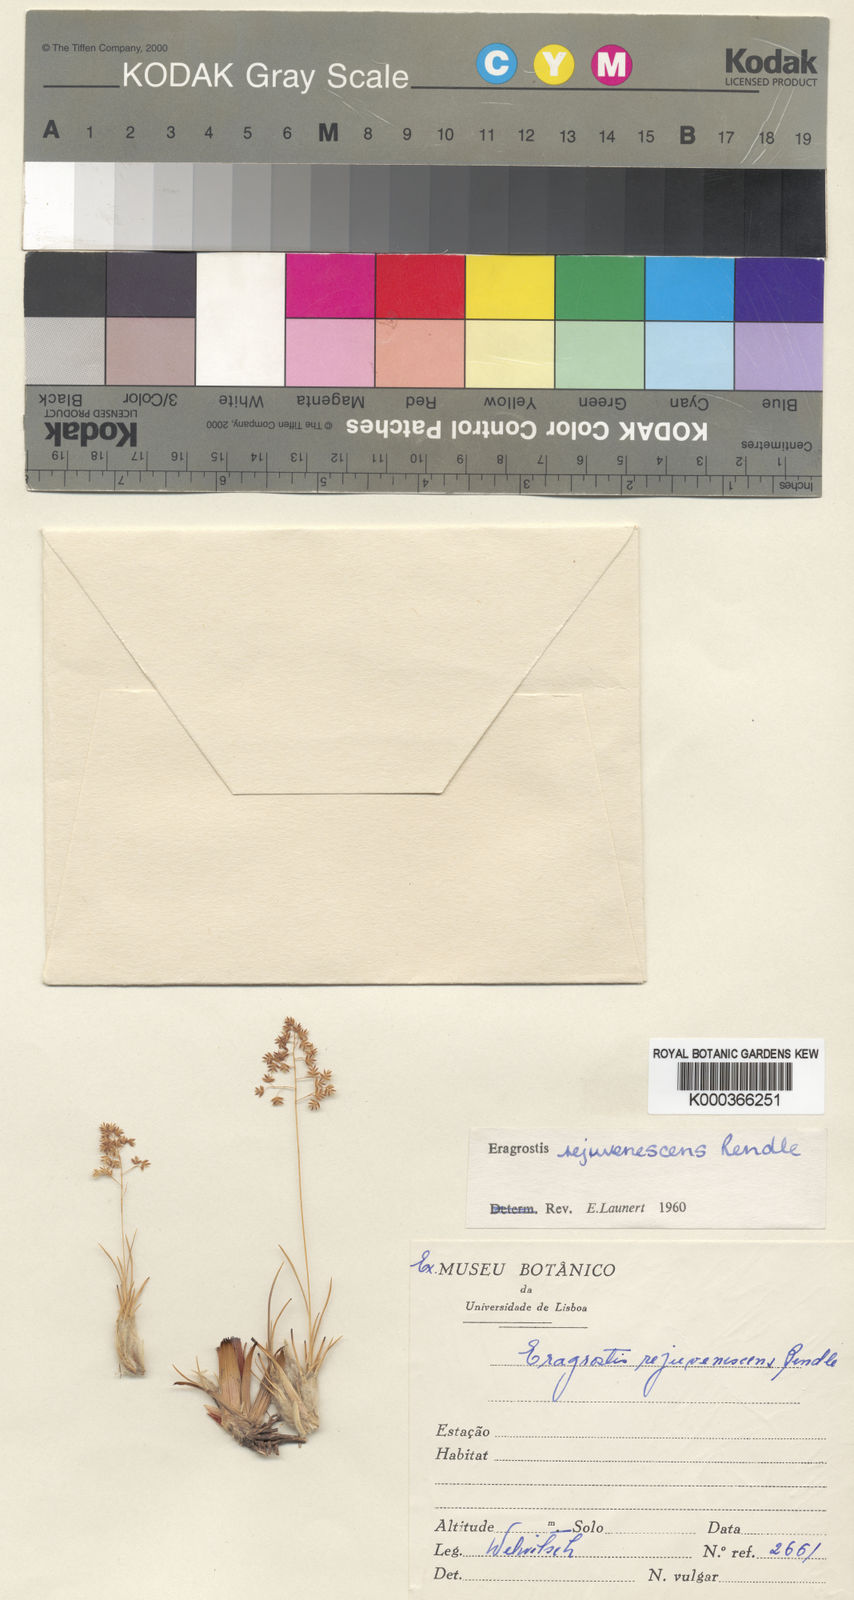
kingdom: Plantae
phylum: Tracheophyta
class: Liliopsida
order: Poales
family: Poaceae
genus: Eragrostis
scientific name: Eragrostis rejuvenescens
